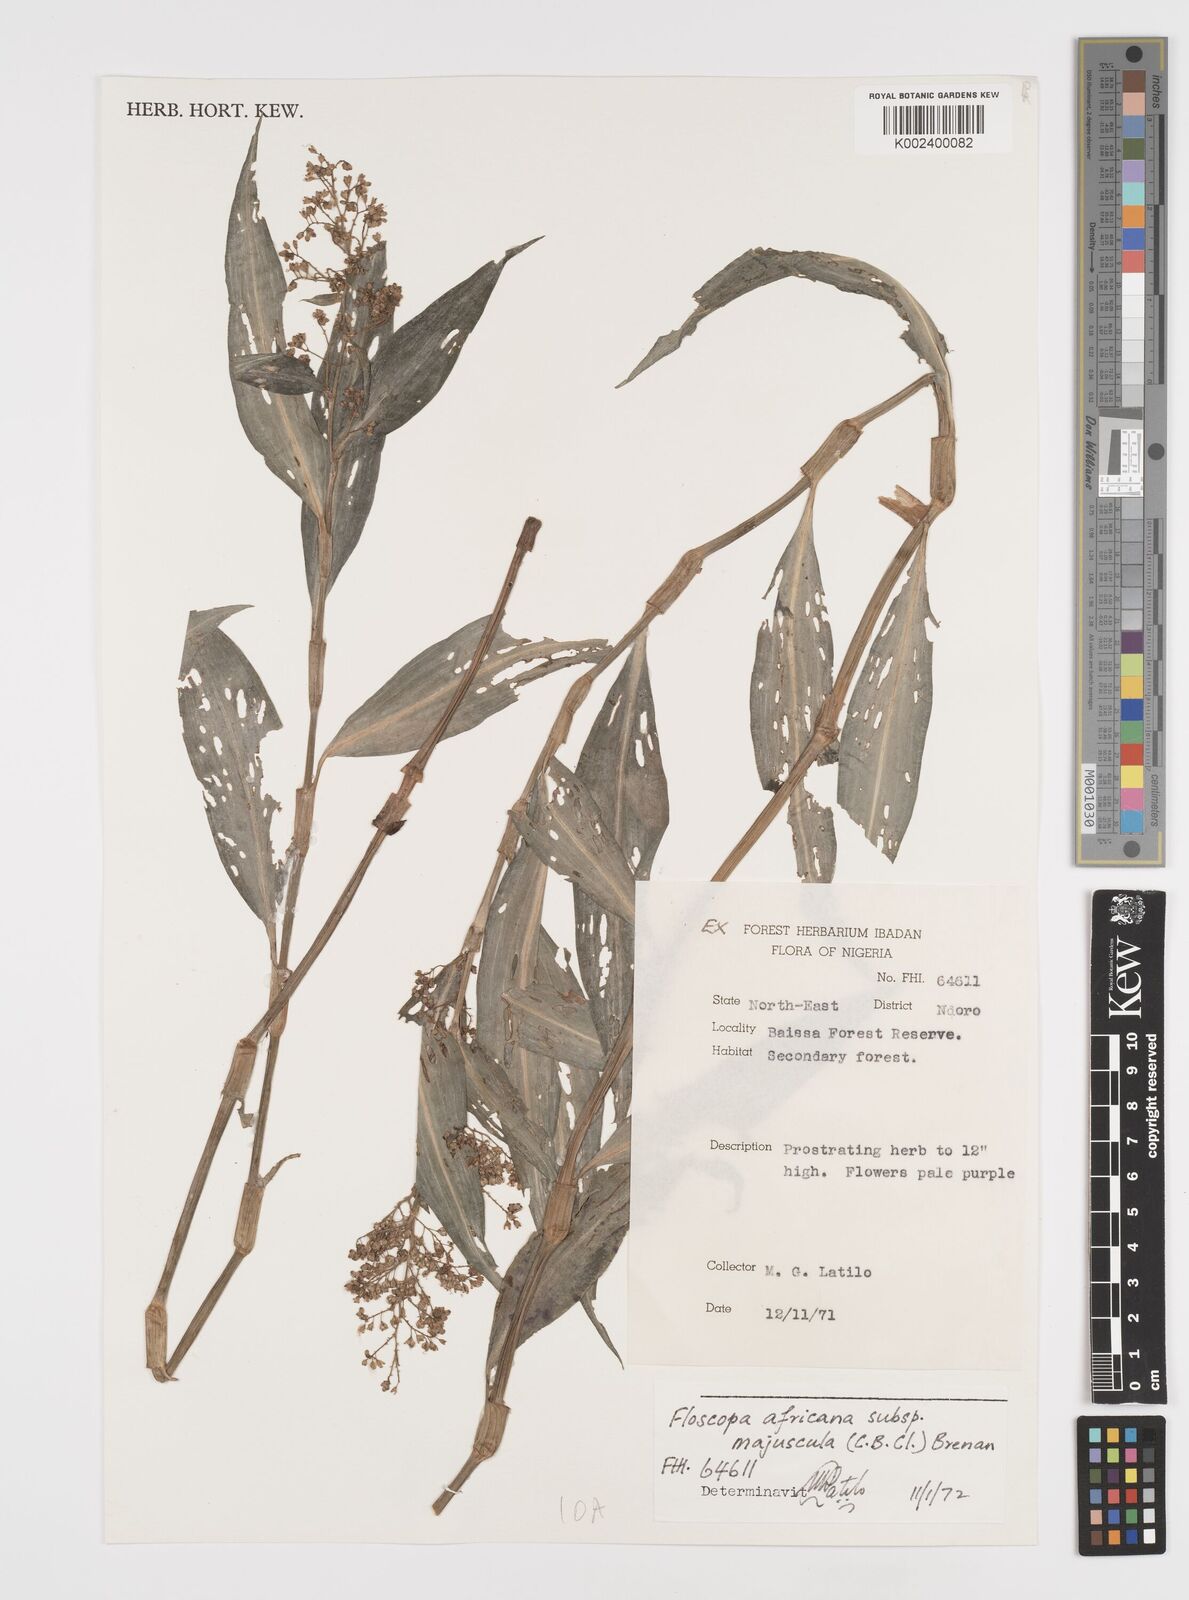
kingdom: Plantae
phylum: Tracheophyta
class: Liliopsida
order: Commelinales
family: Commelinaceae
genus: Floscopa
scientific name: Floscopa africana
